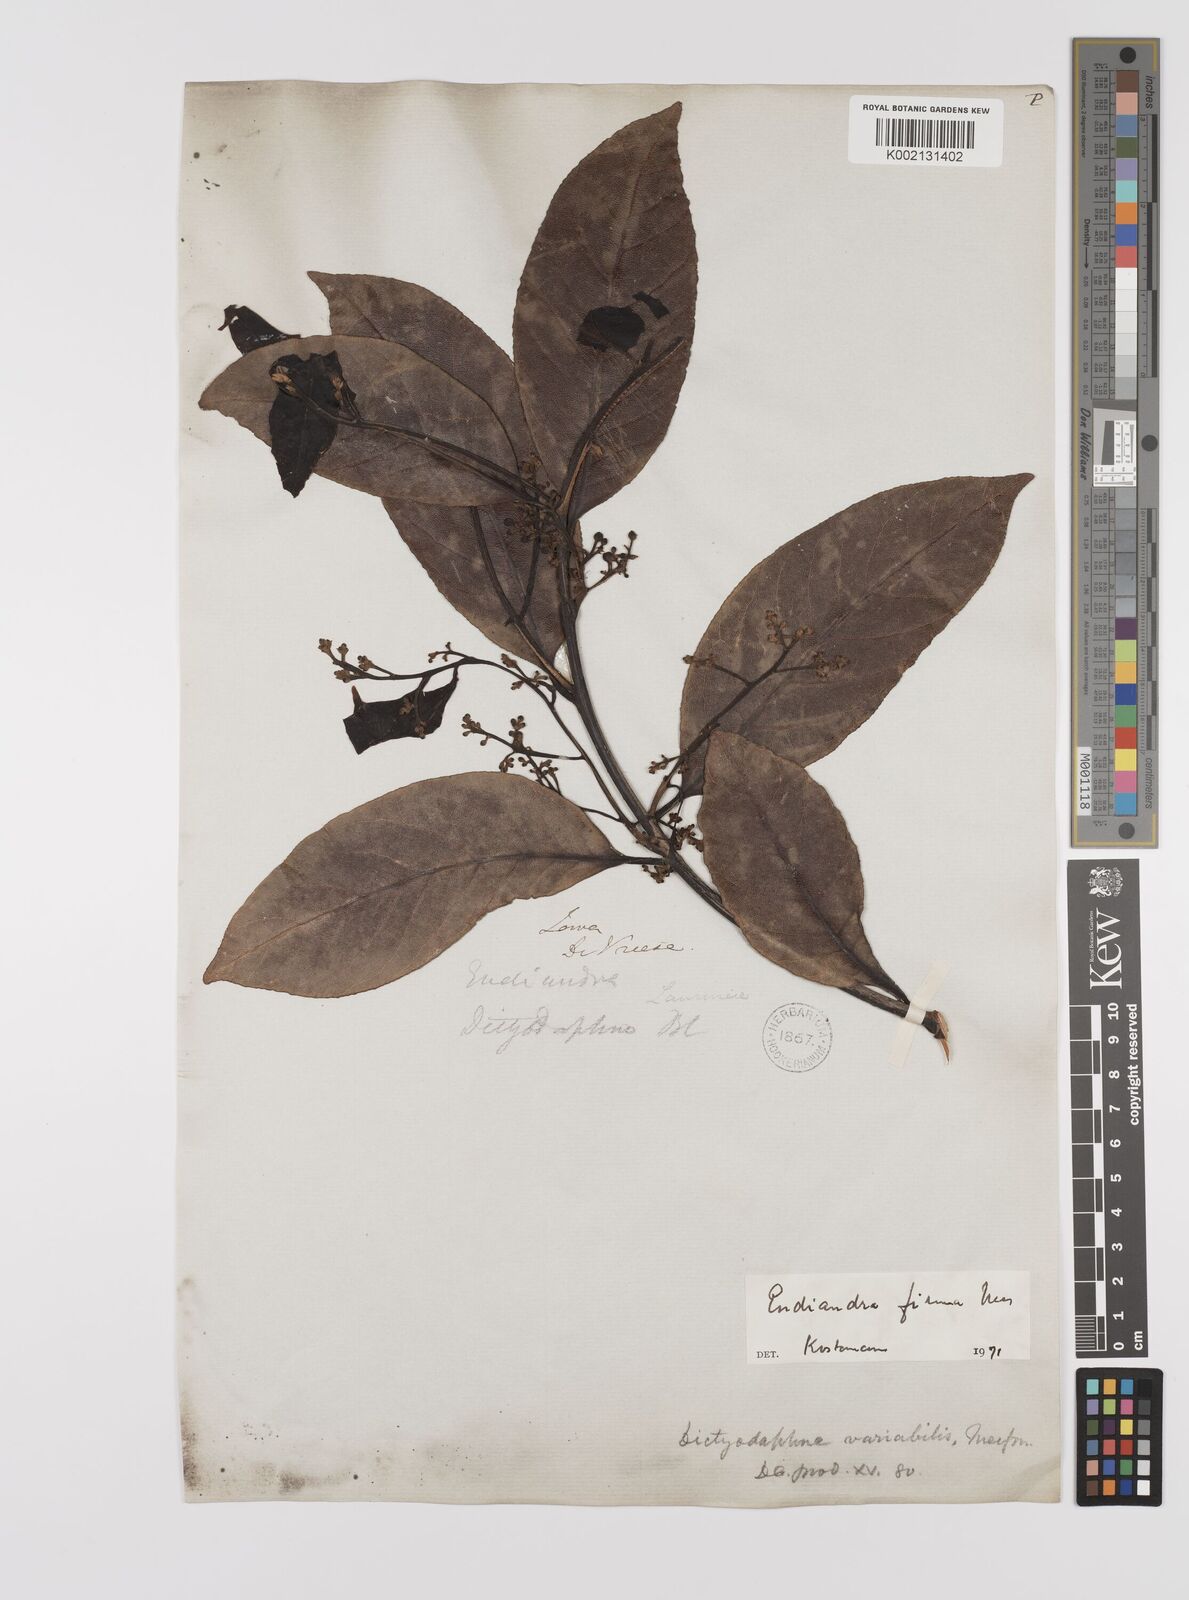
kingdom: Plantae
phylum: Tracheophyta
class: Magnoliopsida
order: Laurales
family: Lauraceae
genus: Endiandra
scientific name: Endiandra firma
